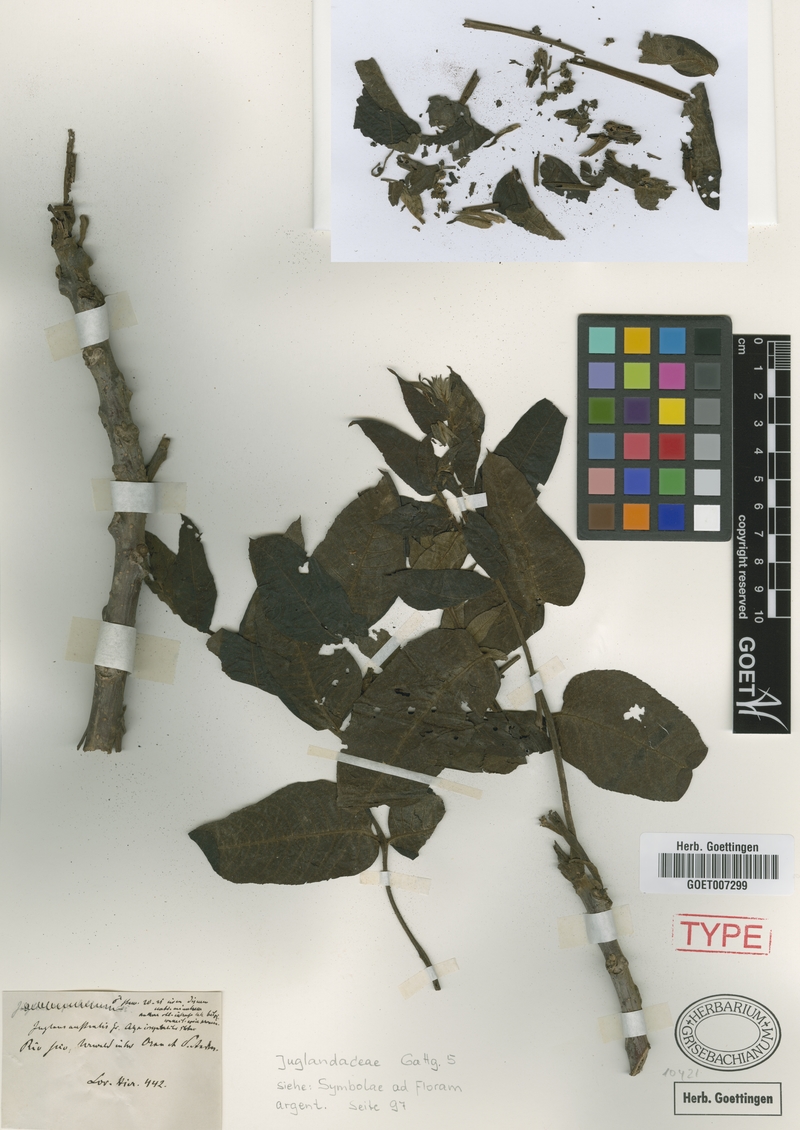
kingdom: Plantae
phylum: Tracheophyta
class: Magnoliopsida
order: Fagales
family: Juglandaceae
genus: Juglans
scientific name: Juglans australis
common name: Argentine walnut
